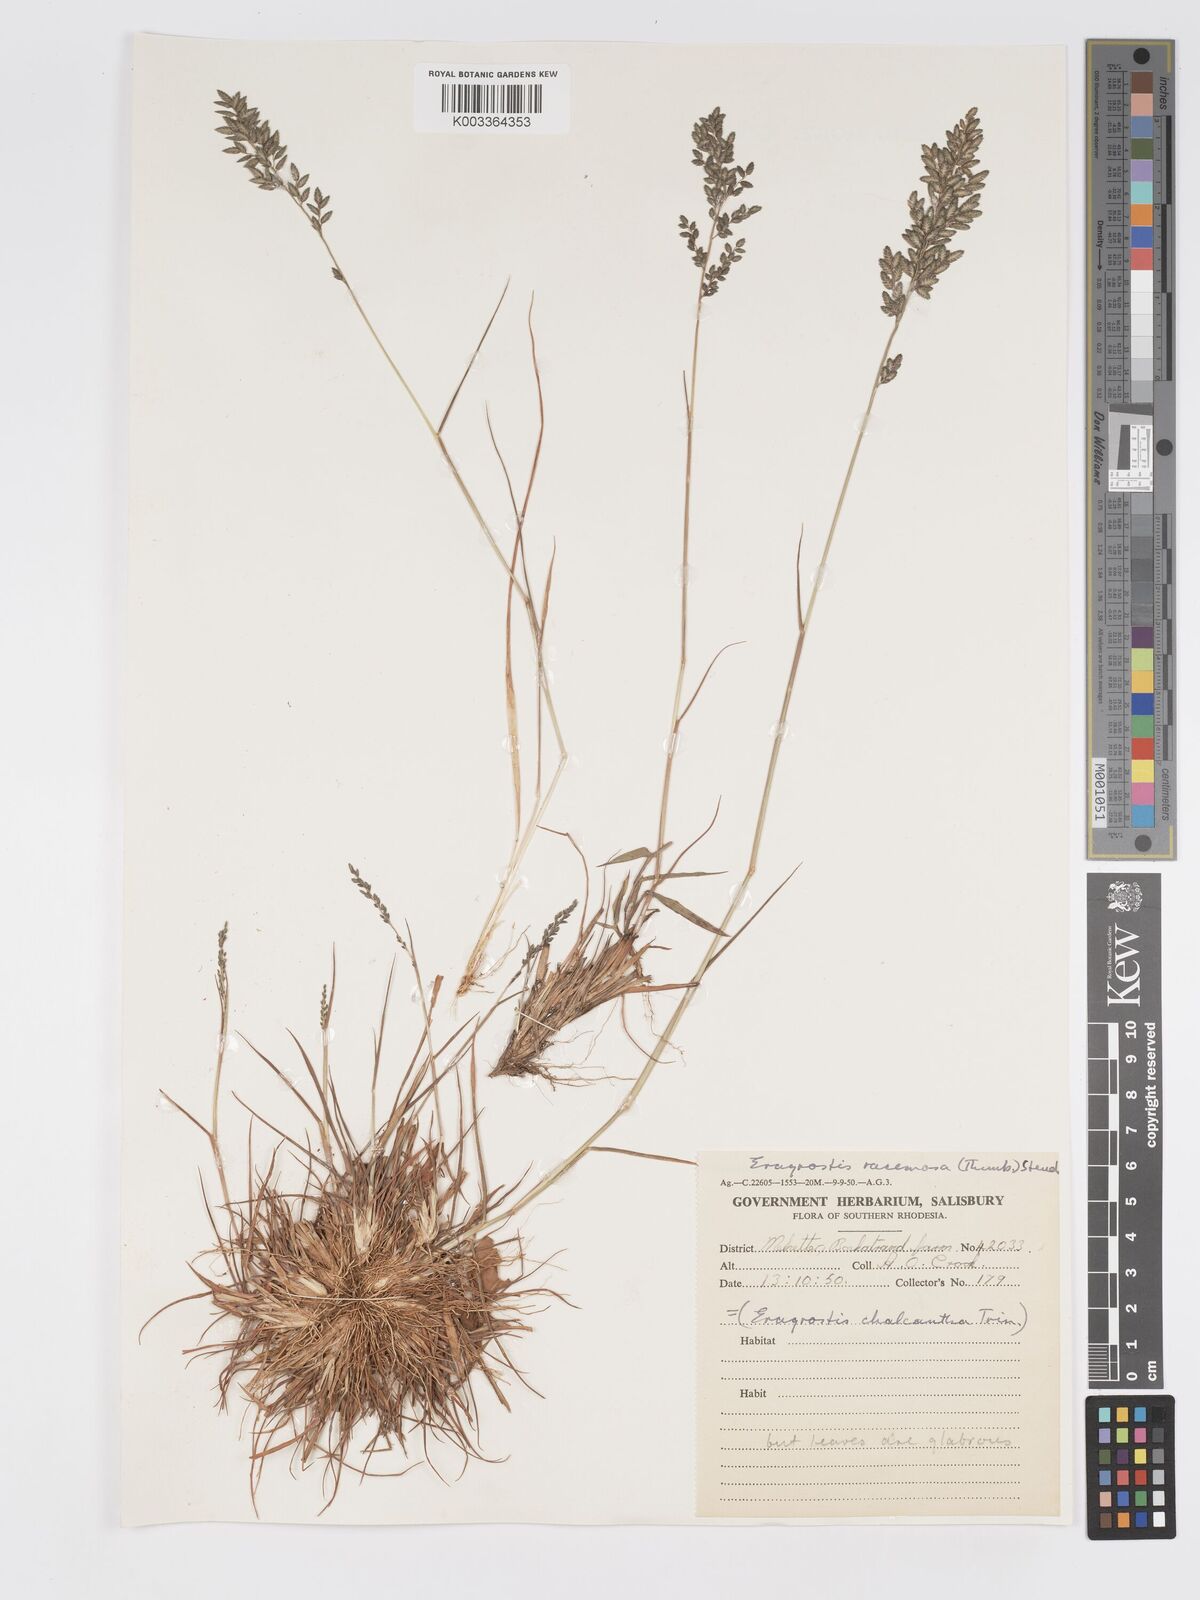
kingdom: Plantae
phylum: Tracheophyta
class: Liliopsida
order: Poales
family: Poaceae
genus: Eragrostis
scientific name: Eragrostis racemosa
